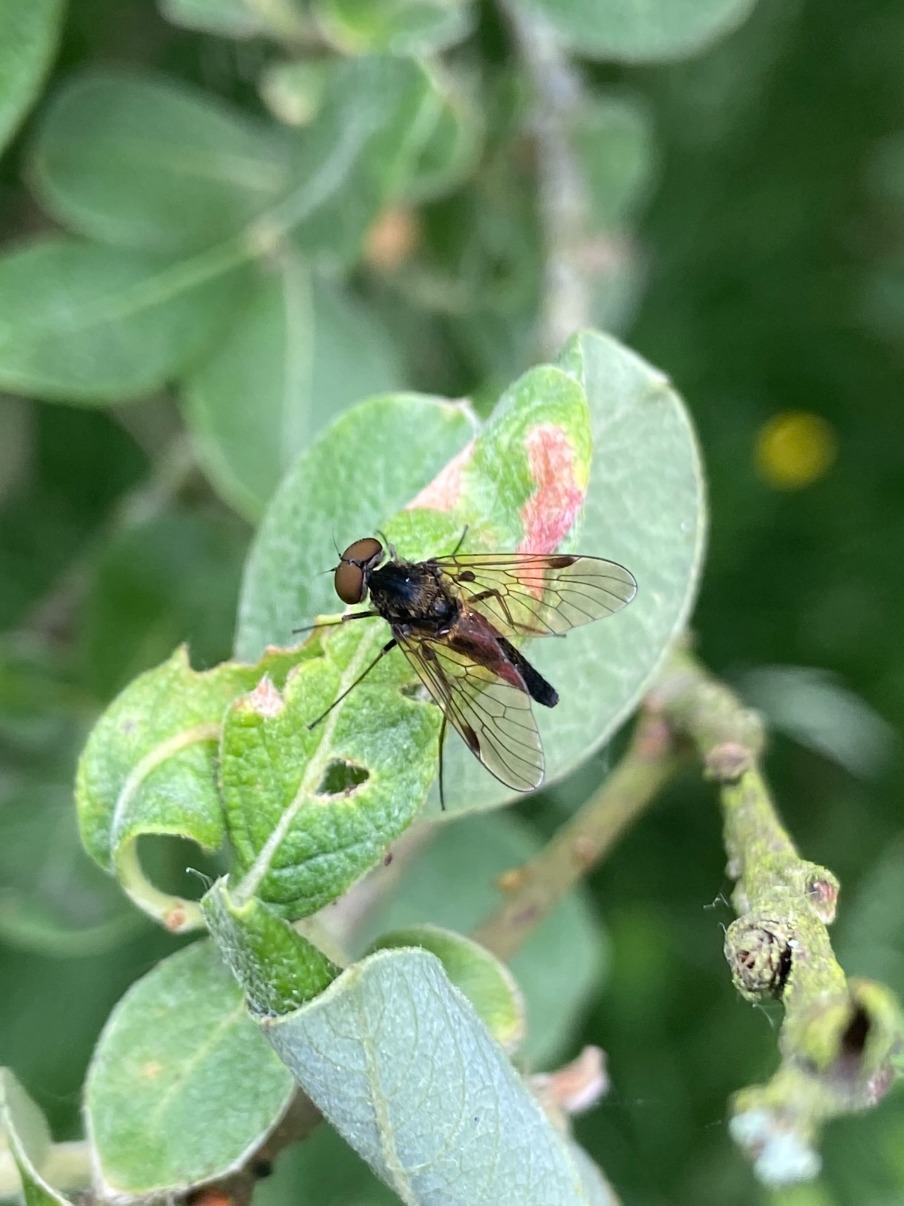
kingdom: Animalia
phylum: Arthropoda
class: Insecta
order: Diptera
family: Rhagionidae
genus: Chrysopilus
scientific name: Chrysopilus cristatus
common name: Gulhåret sneppeflue
